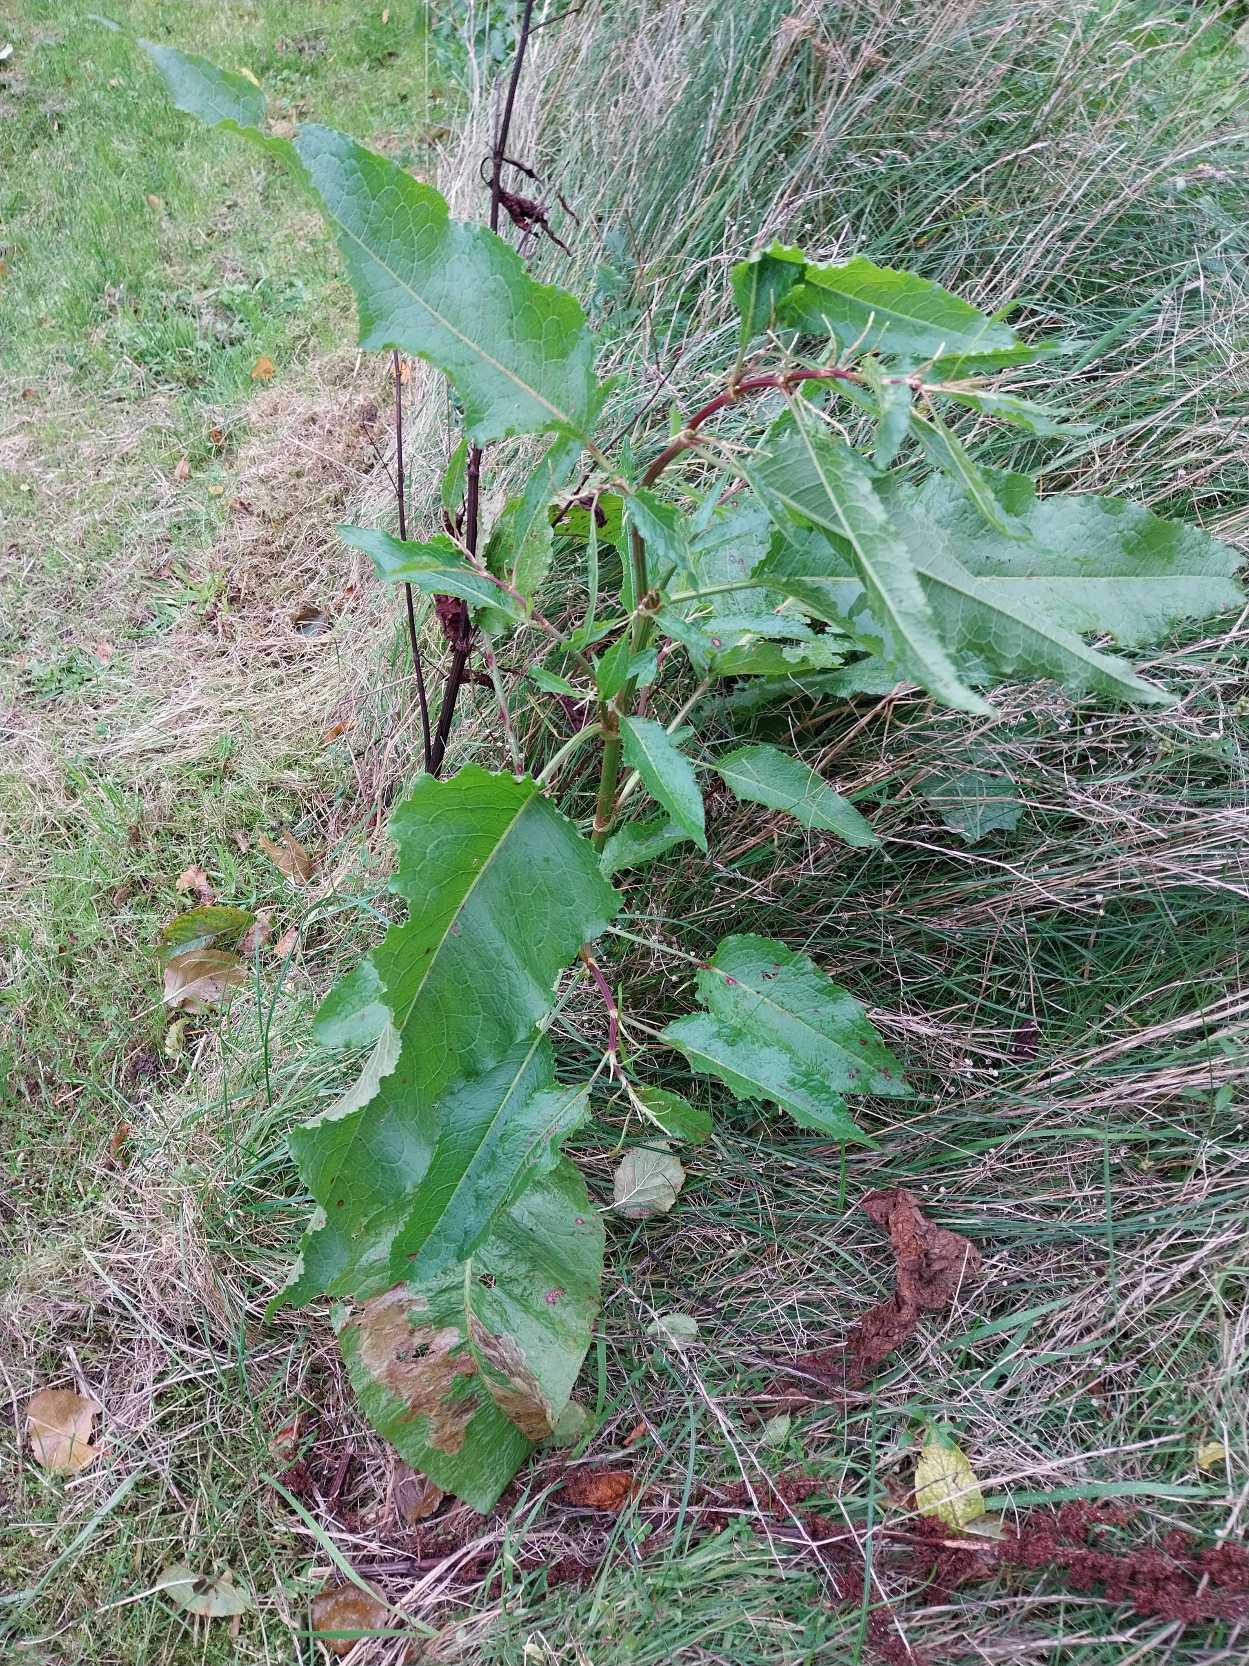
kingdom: Plantae
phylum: Tracheophyta
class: Magnoliopsida
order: Caryophyllales
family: Polygonaceae
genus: Rumex
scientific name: Rumex obtusifolius
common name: Butbladet skræppe
